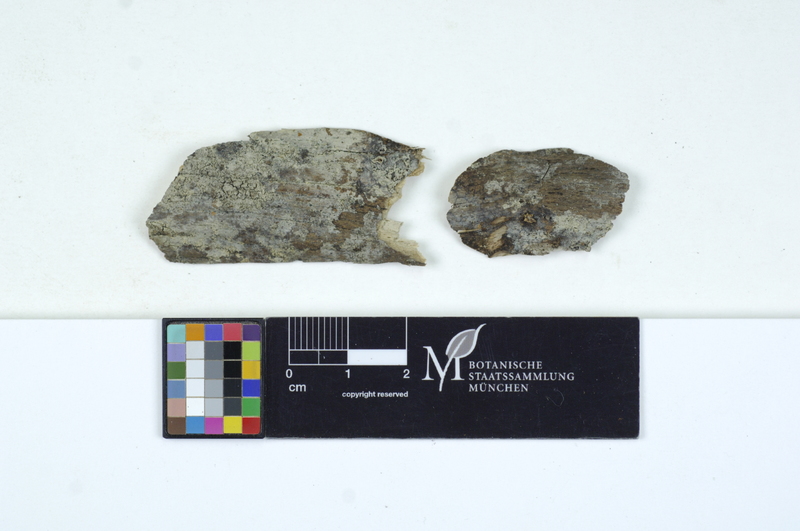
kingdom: Fungi
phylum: Basidiomycota
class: Agaricomycetes
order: Cantharellales
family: Tulasnellaceae
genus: Tulasnella
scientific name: Tulasnella violea
